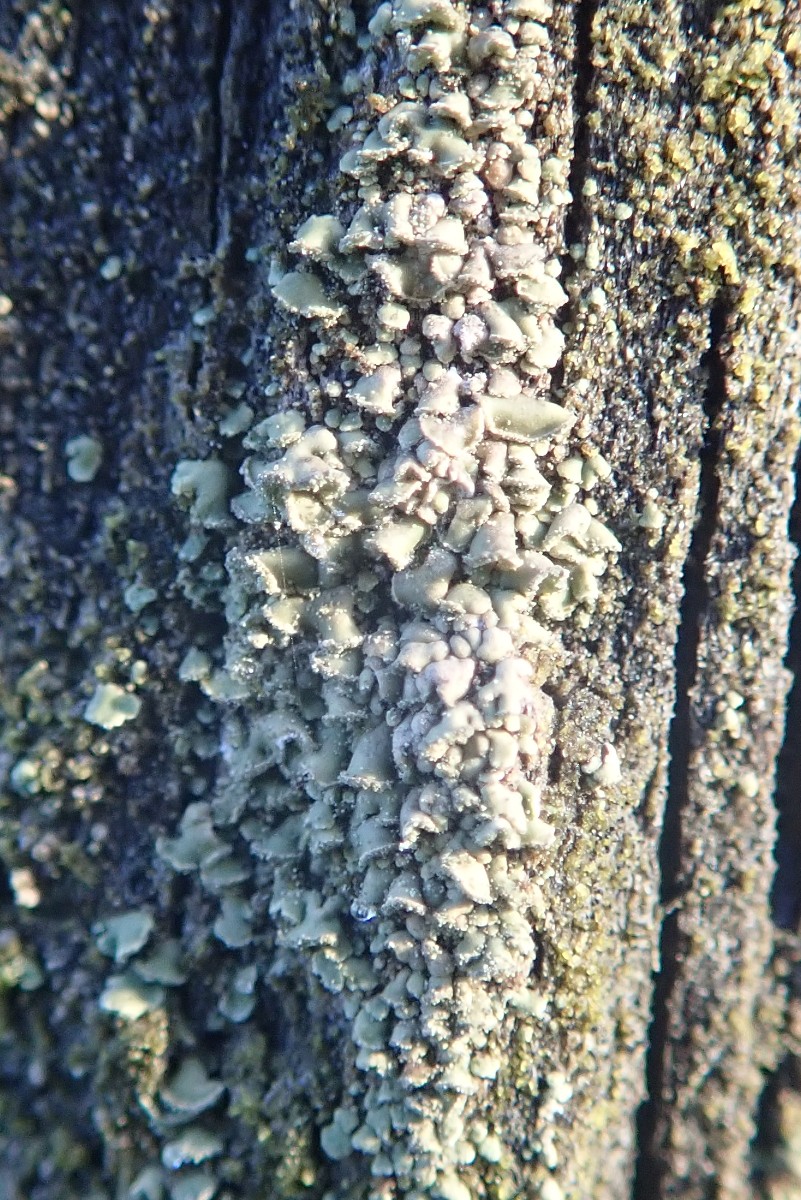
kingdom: Fungi
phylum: Ascomycota
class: Lecanoromycetes
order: Umbilicariales
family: Ophioparmaceae
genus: Hypocenomyce
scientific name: Hypocenomyce scalaris
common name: småskællet muslinglav
